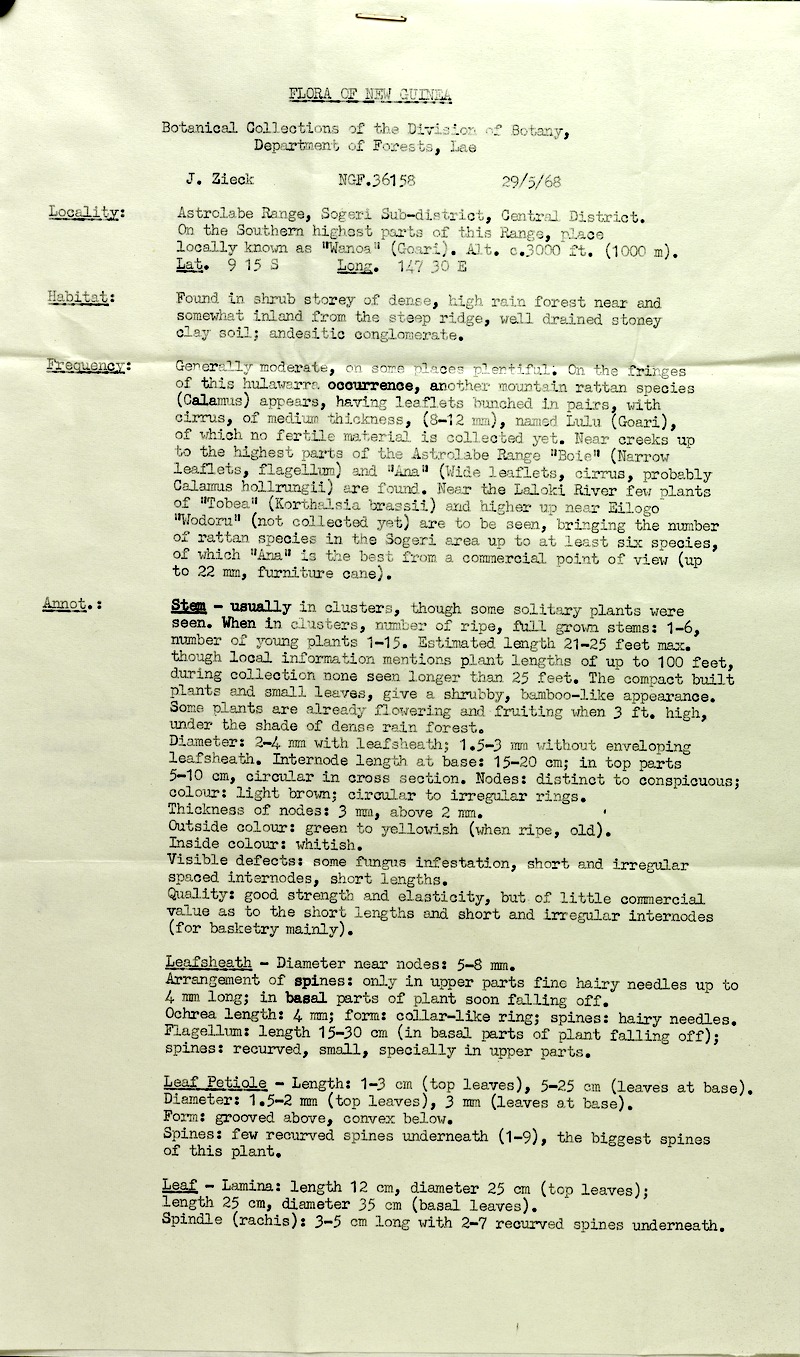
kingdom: Plantae
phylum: Tracheophyta
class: Liliopsida
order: Arecales
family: Arecaceae
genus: Calamus
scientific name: Calamus essigii
